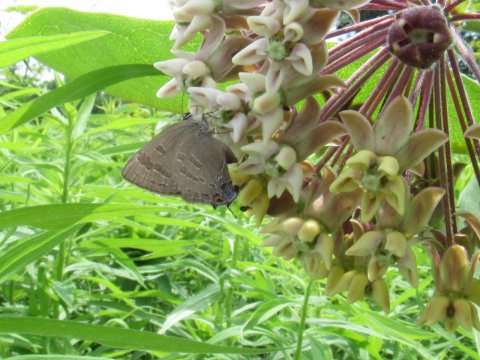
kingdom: Animalia
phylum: Arthropoda
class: Insecta
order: Lepidoptera
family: Lycaenidae
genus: Strymon
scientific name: Strymon caryaevorus
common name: Hickory Hairstreak
